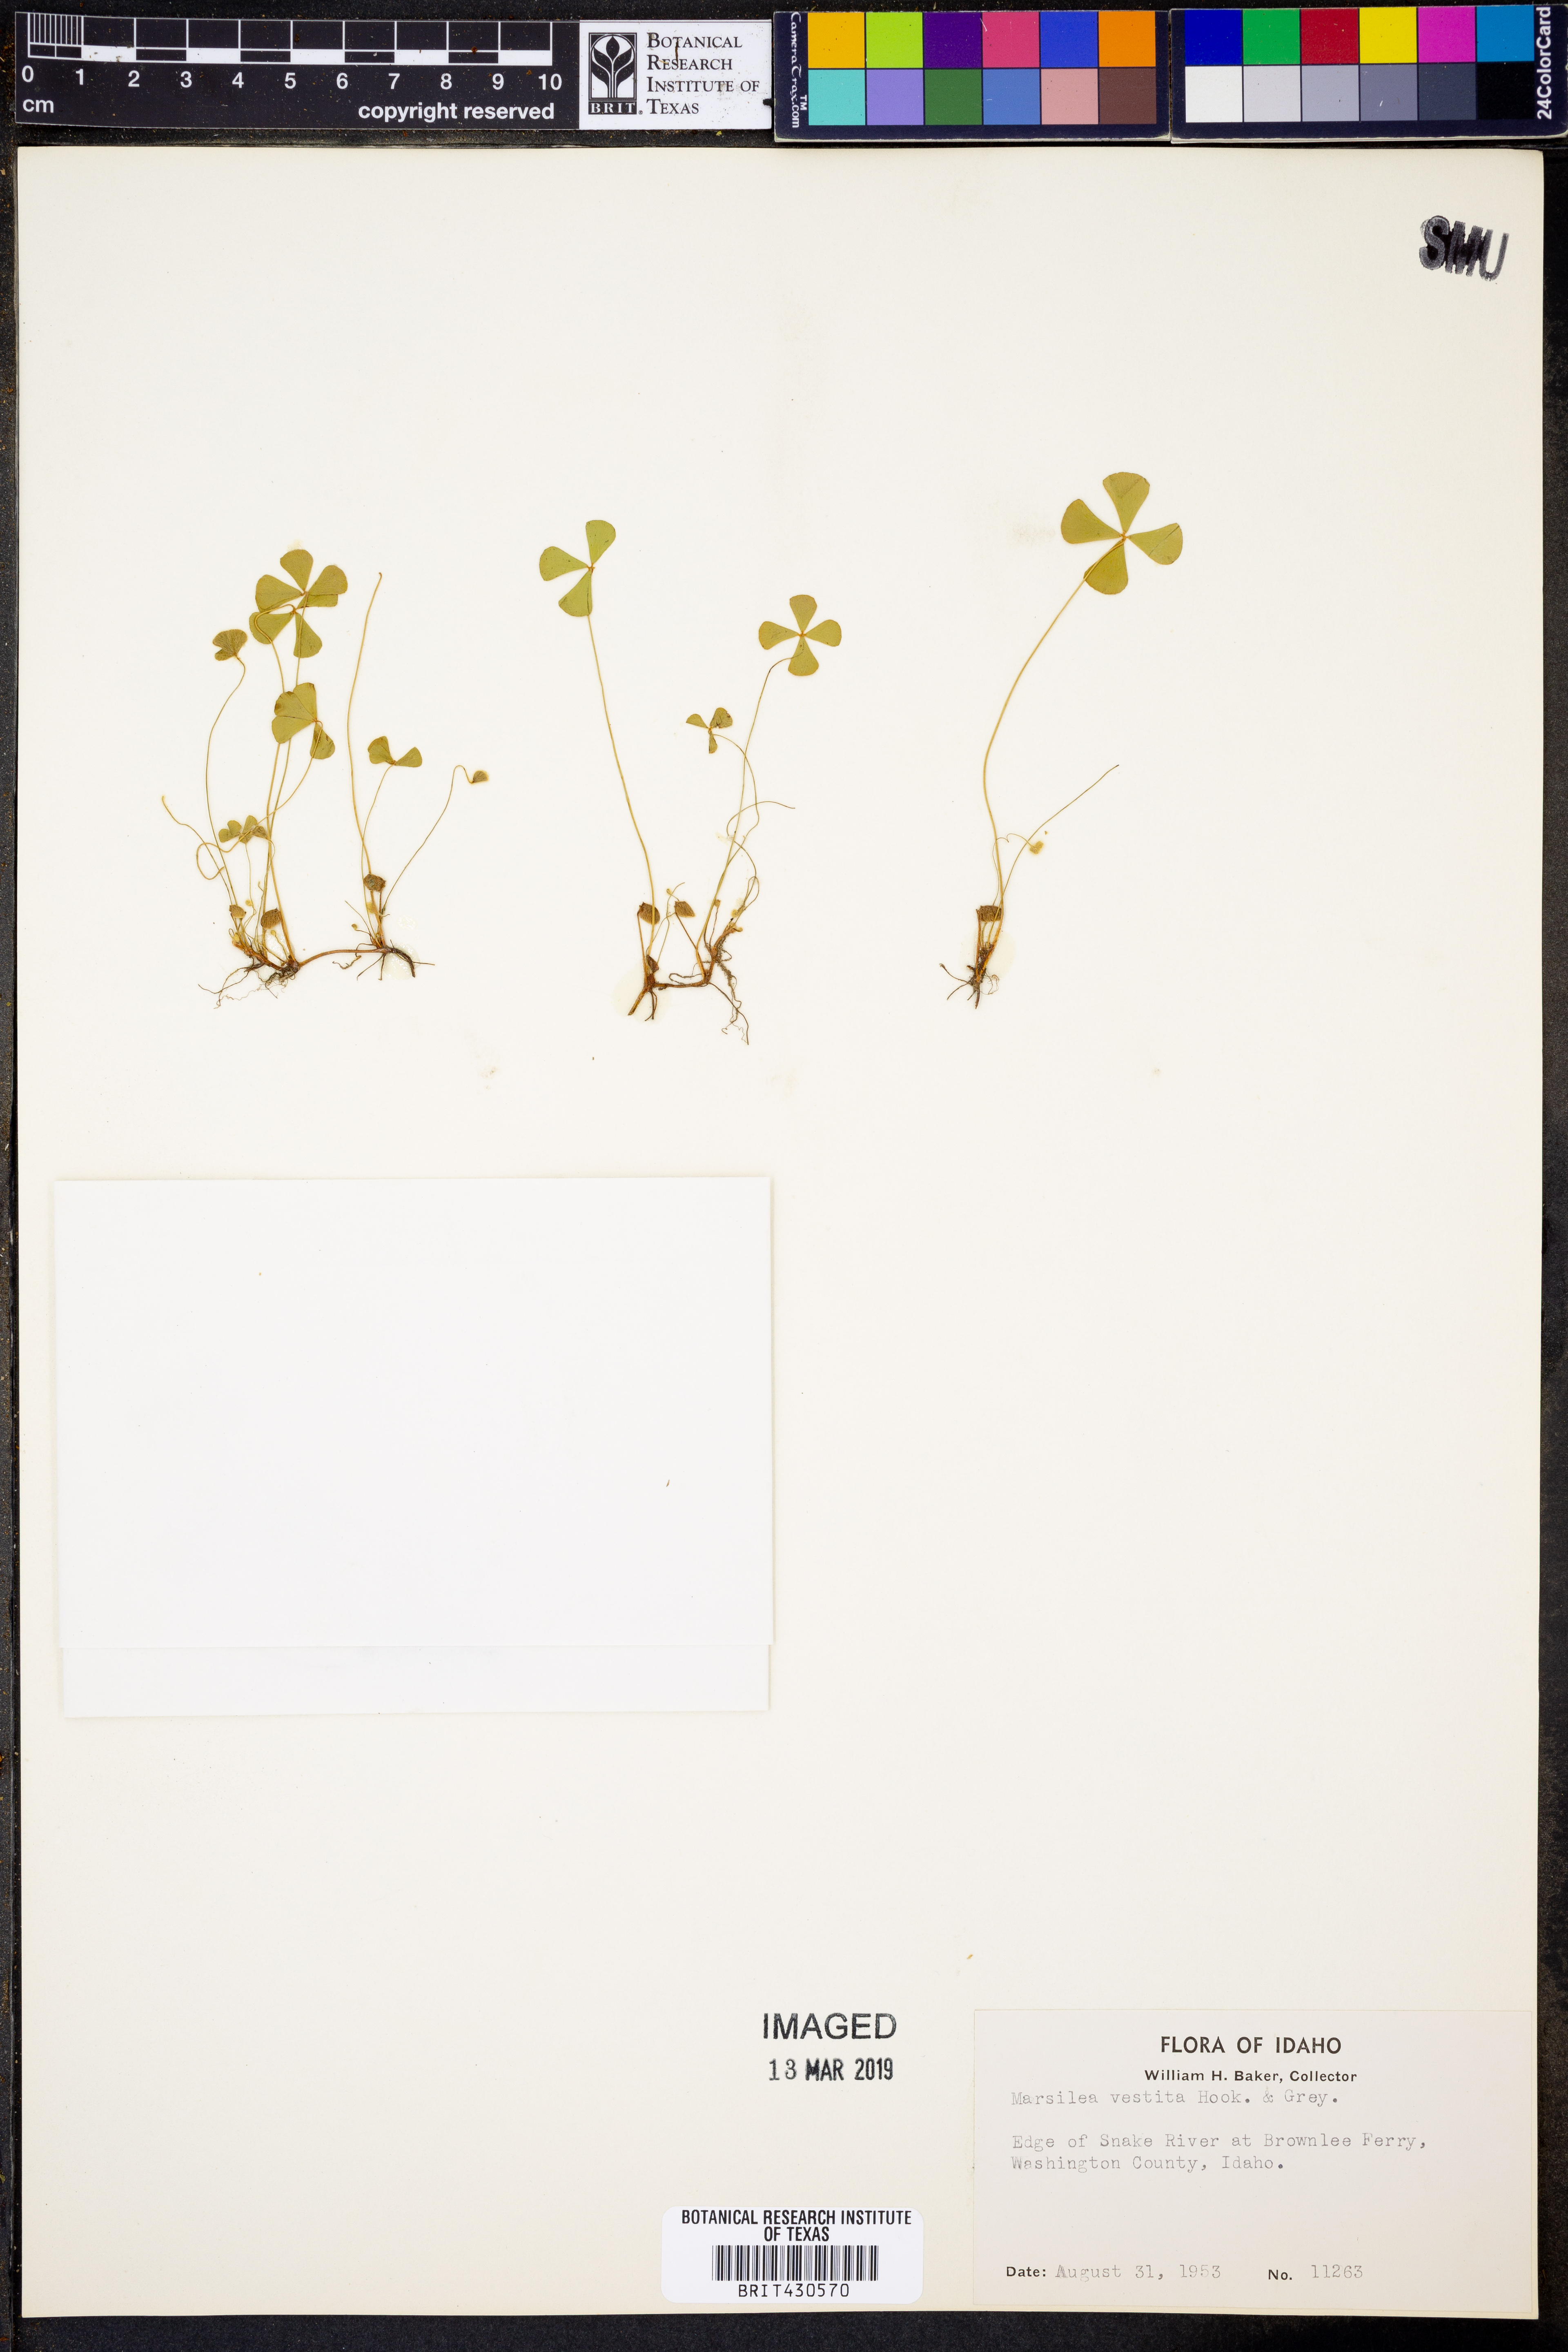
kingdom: Plantae
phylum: Tracheophyta
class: Polypodiopsida
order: Salviniales
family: Marsileaceae
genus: Marsilea
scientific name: Marsilea vestita
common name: Hooked-pepperwort
